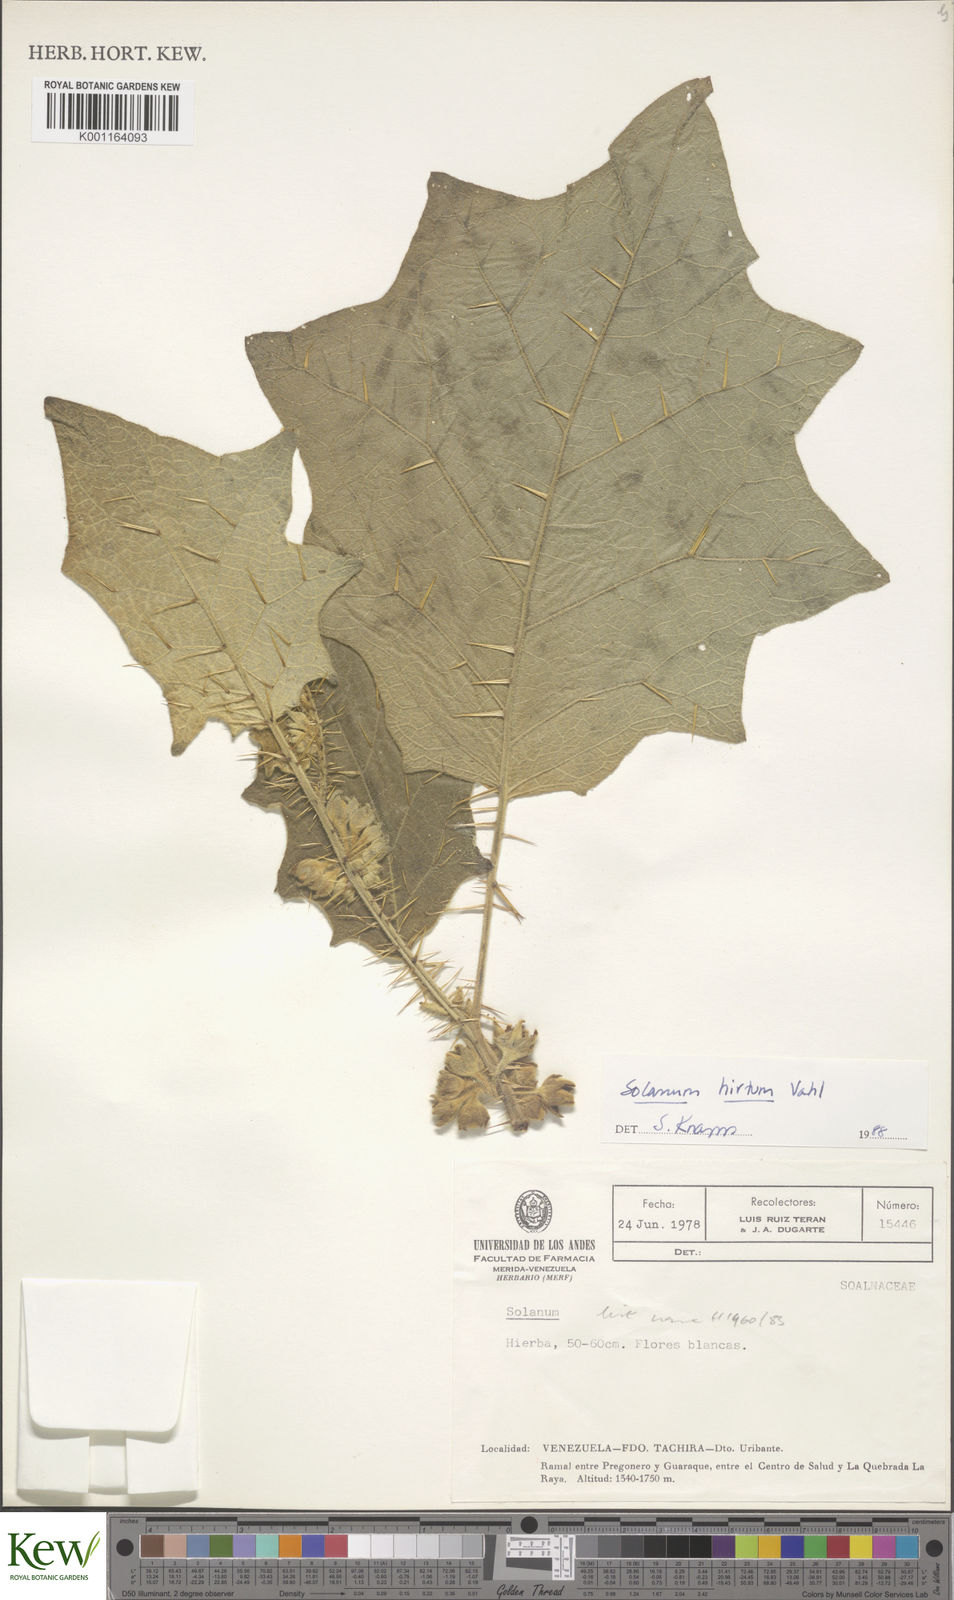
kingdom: Plantae
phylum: Tracheophyta
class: Magnoliopsida
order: Solanales
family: Solanaceae
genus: Solanum
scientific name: Solanum hirtum
